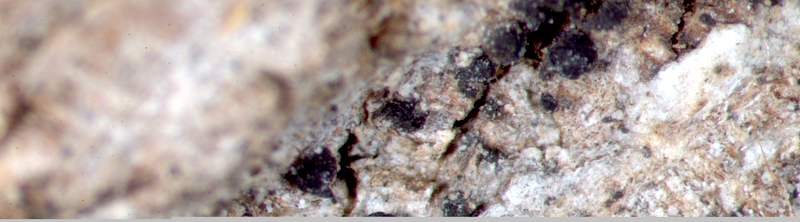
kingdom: Fungi
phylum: Ascomycota
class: Arthoniomycetes
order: Arthoniales
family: Roccellaceae
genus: Bactrospora
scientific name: Bactrospora
